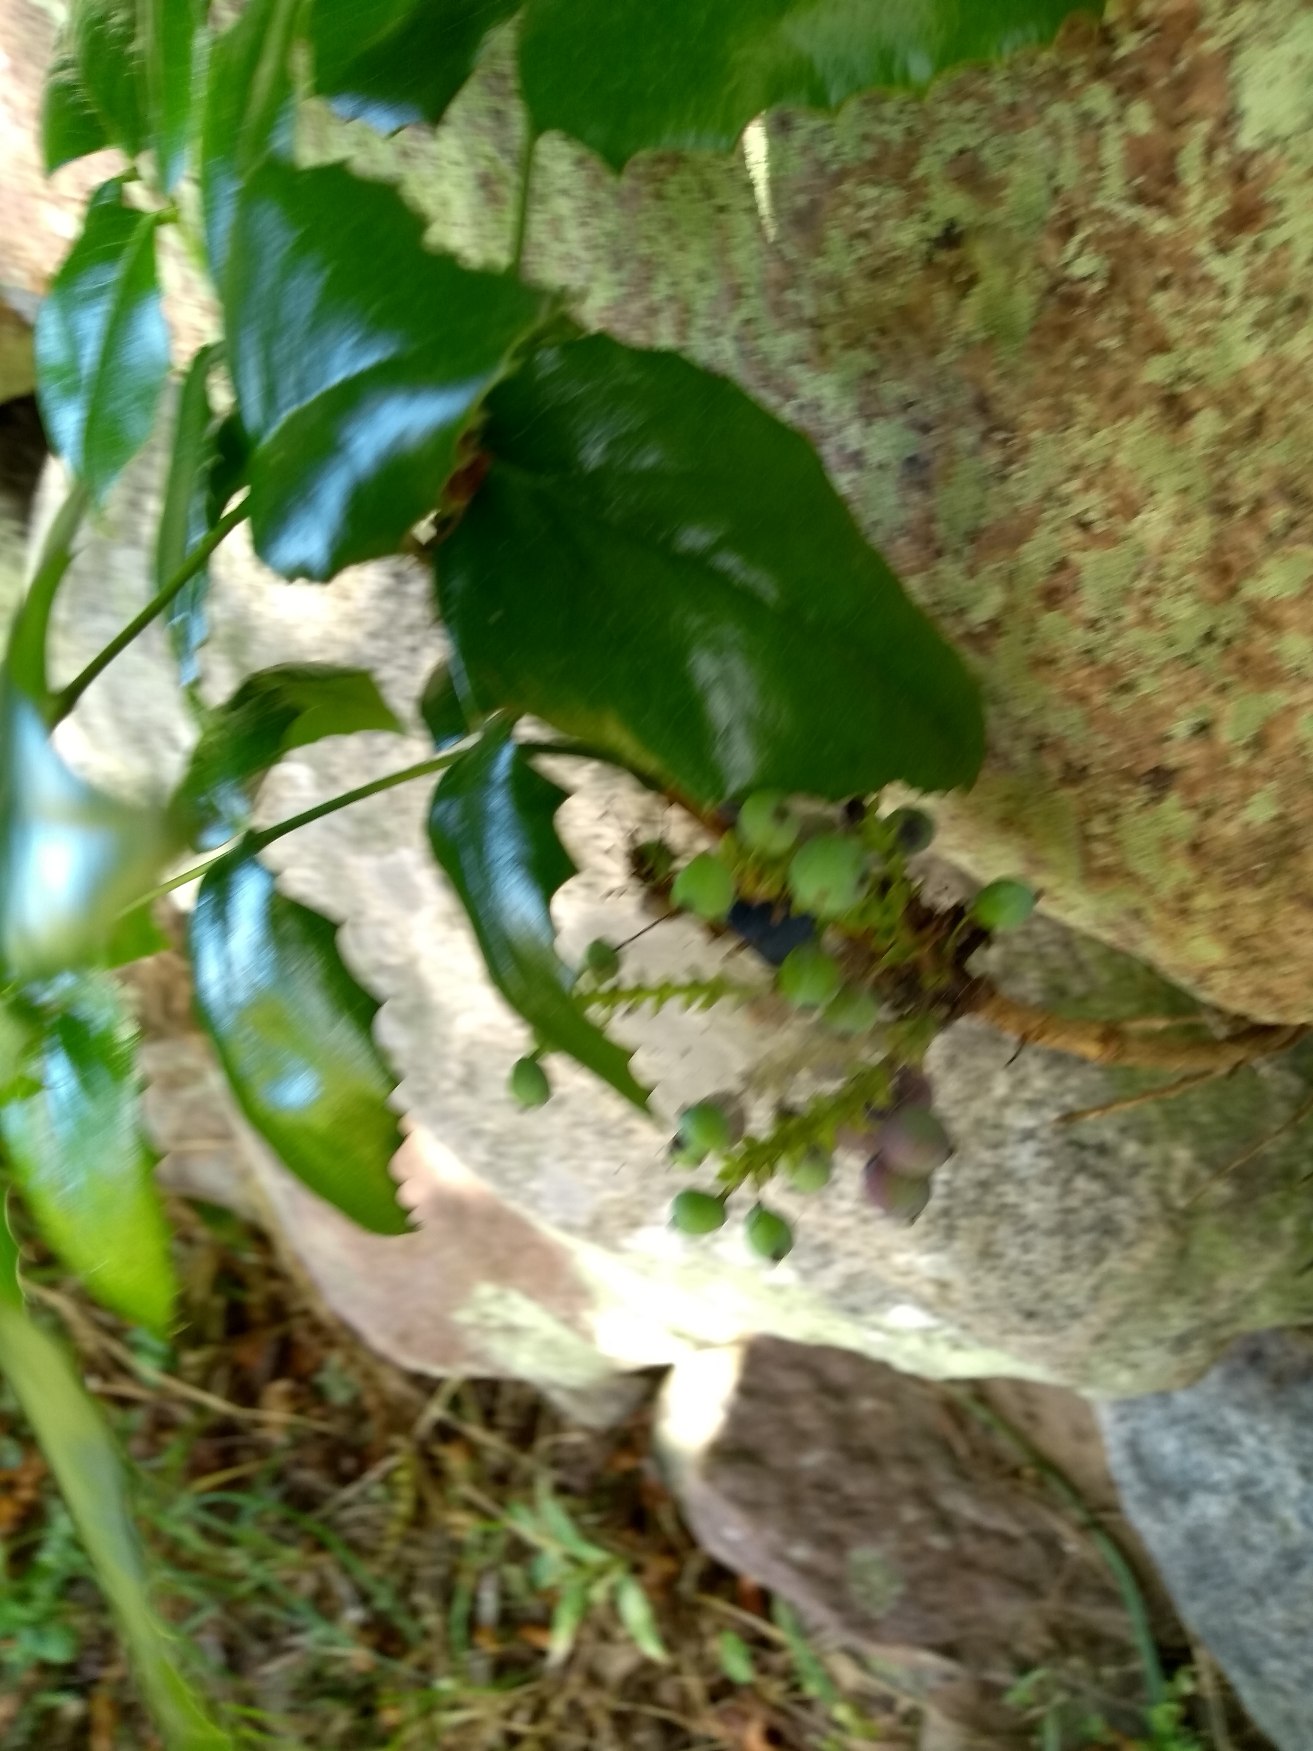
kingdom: Plantae
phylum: Tracheophyta
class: Magnoliopsida
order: Ranunculales
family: Berberidaceae
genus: Mahonia
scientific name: Mahonia aquifolium
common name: Almindelig mahonie
